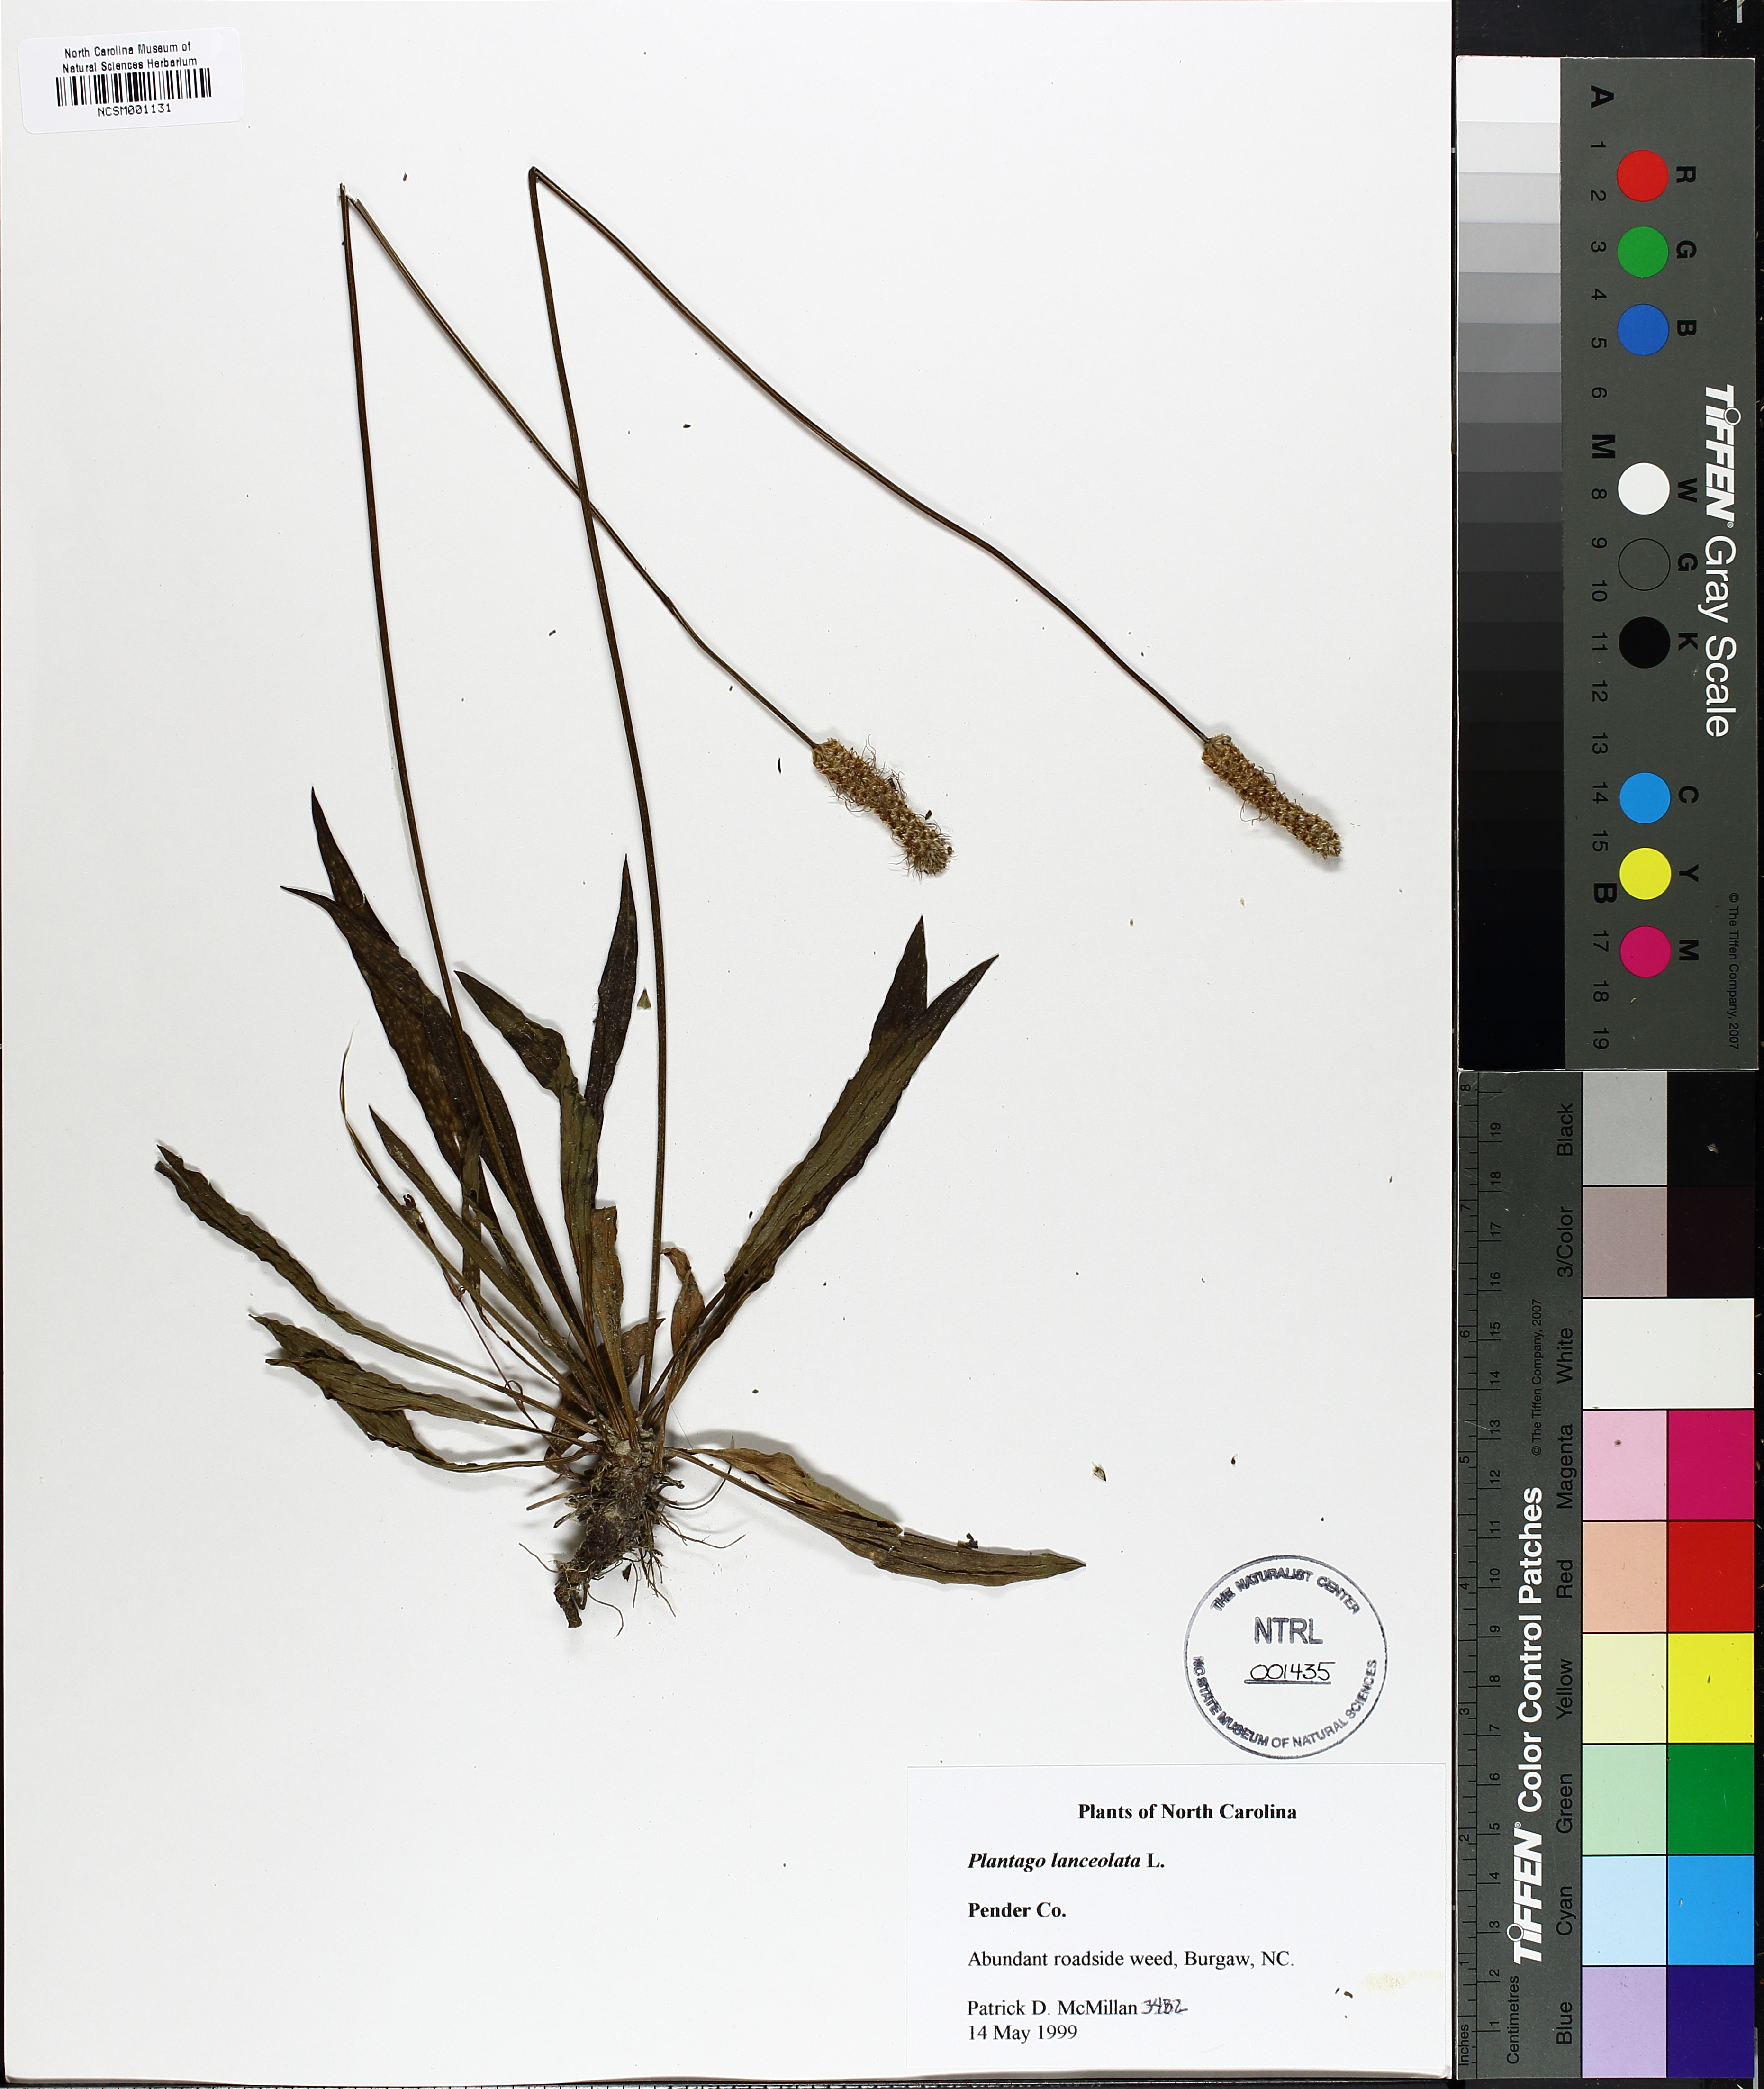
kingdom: Plantae
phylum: Tracheophyta
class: Magnoliopsida
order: Lamiales
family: Plantaginaceae
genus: Plantago
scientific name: Plantago lanceolata
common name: Ribwort plantain
